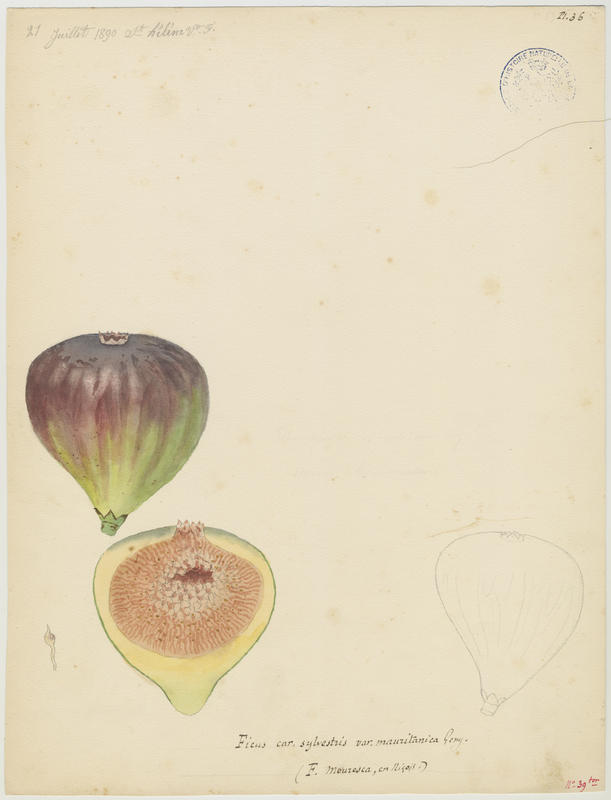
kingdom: Plantae
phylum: Tracheophyta
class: Magnoliopsida
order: Rosales
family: Moraceae
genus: Ficus
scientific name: Ficus carica
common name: Fig
